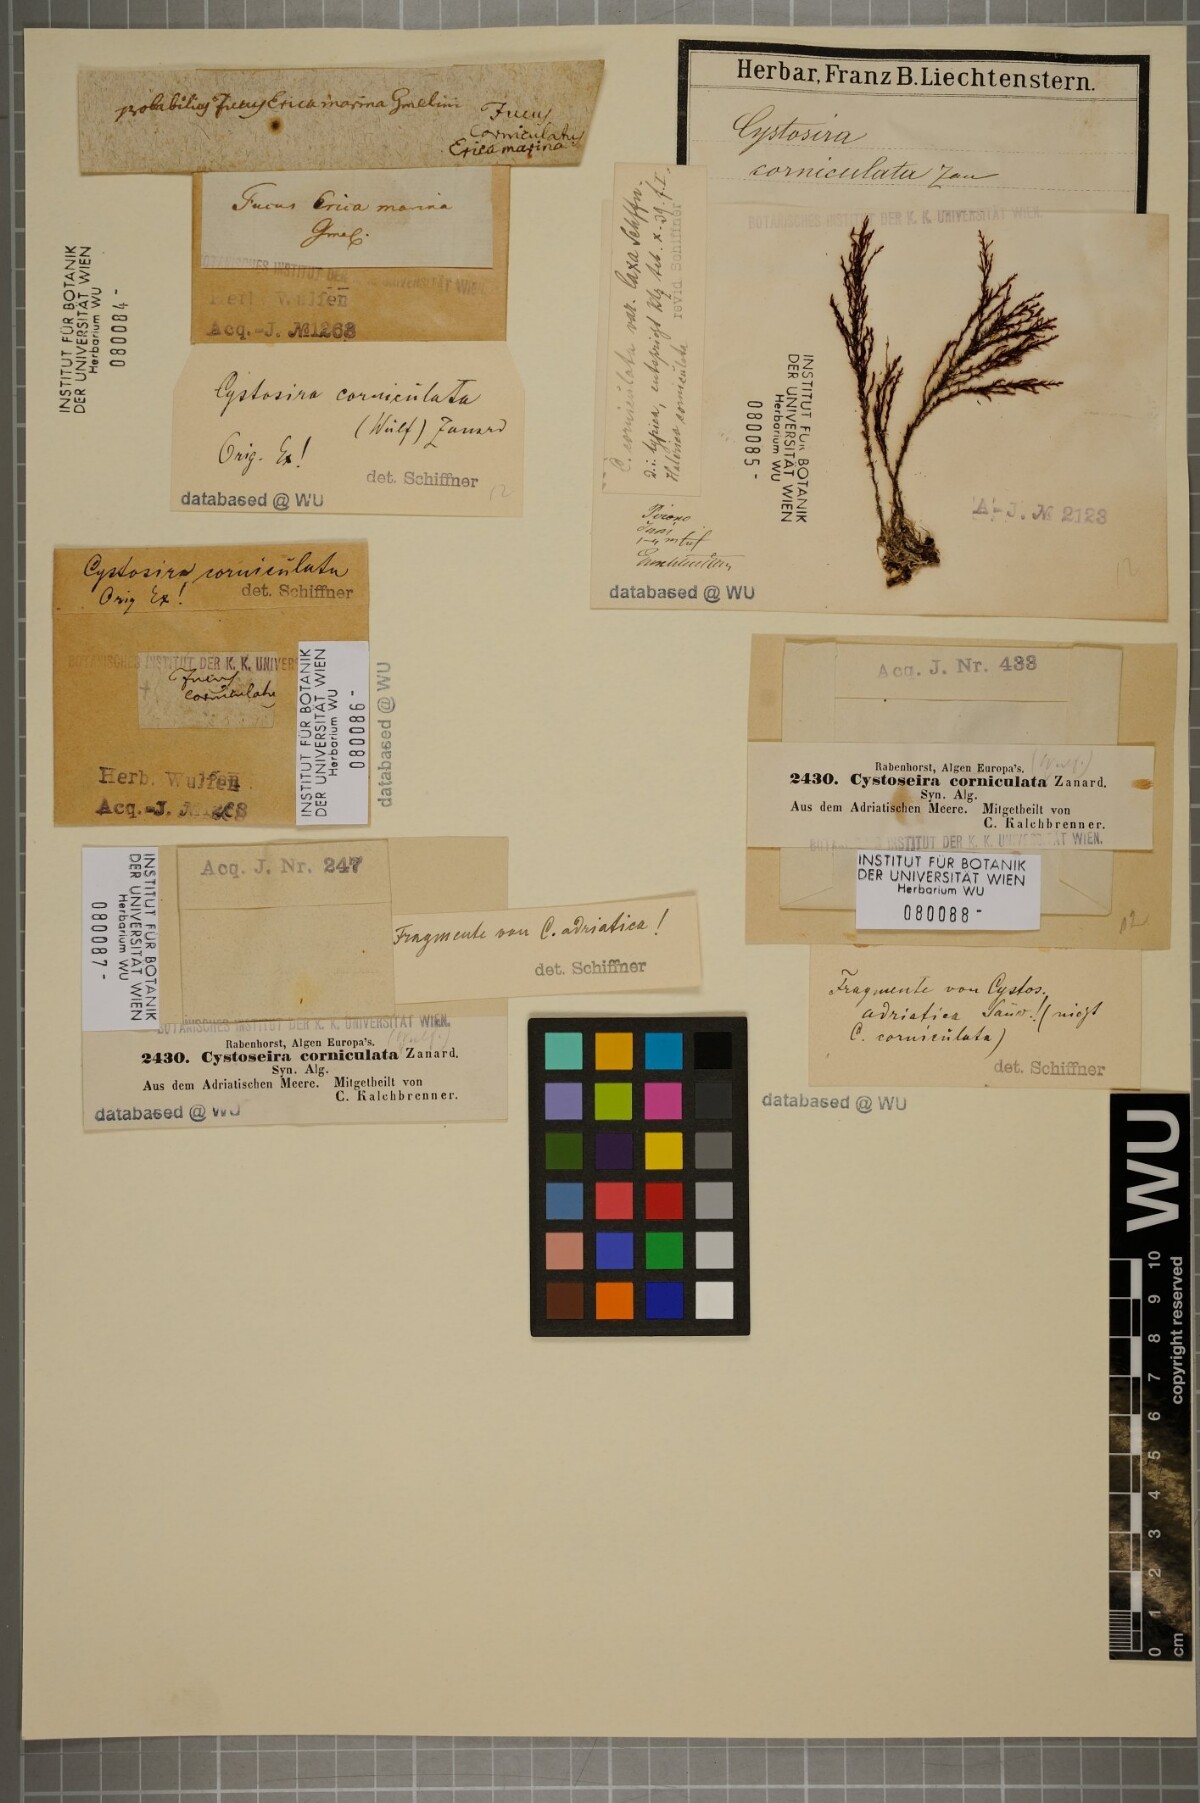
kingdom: Chromista
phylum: Ochrophyta
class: Phaeophyceae
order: Fucales
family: Sargassaceae
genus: Cystoseira
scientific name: Cystoseira corniculata
